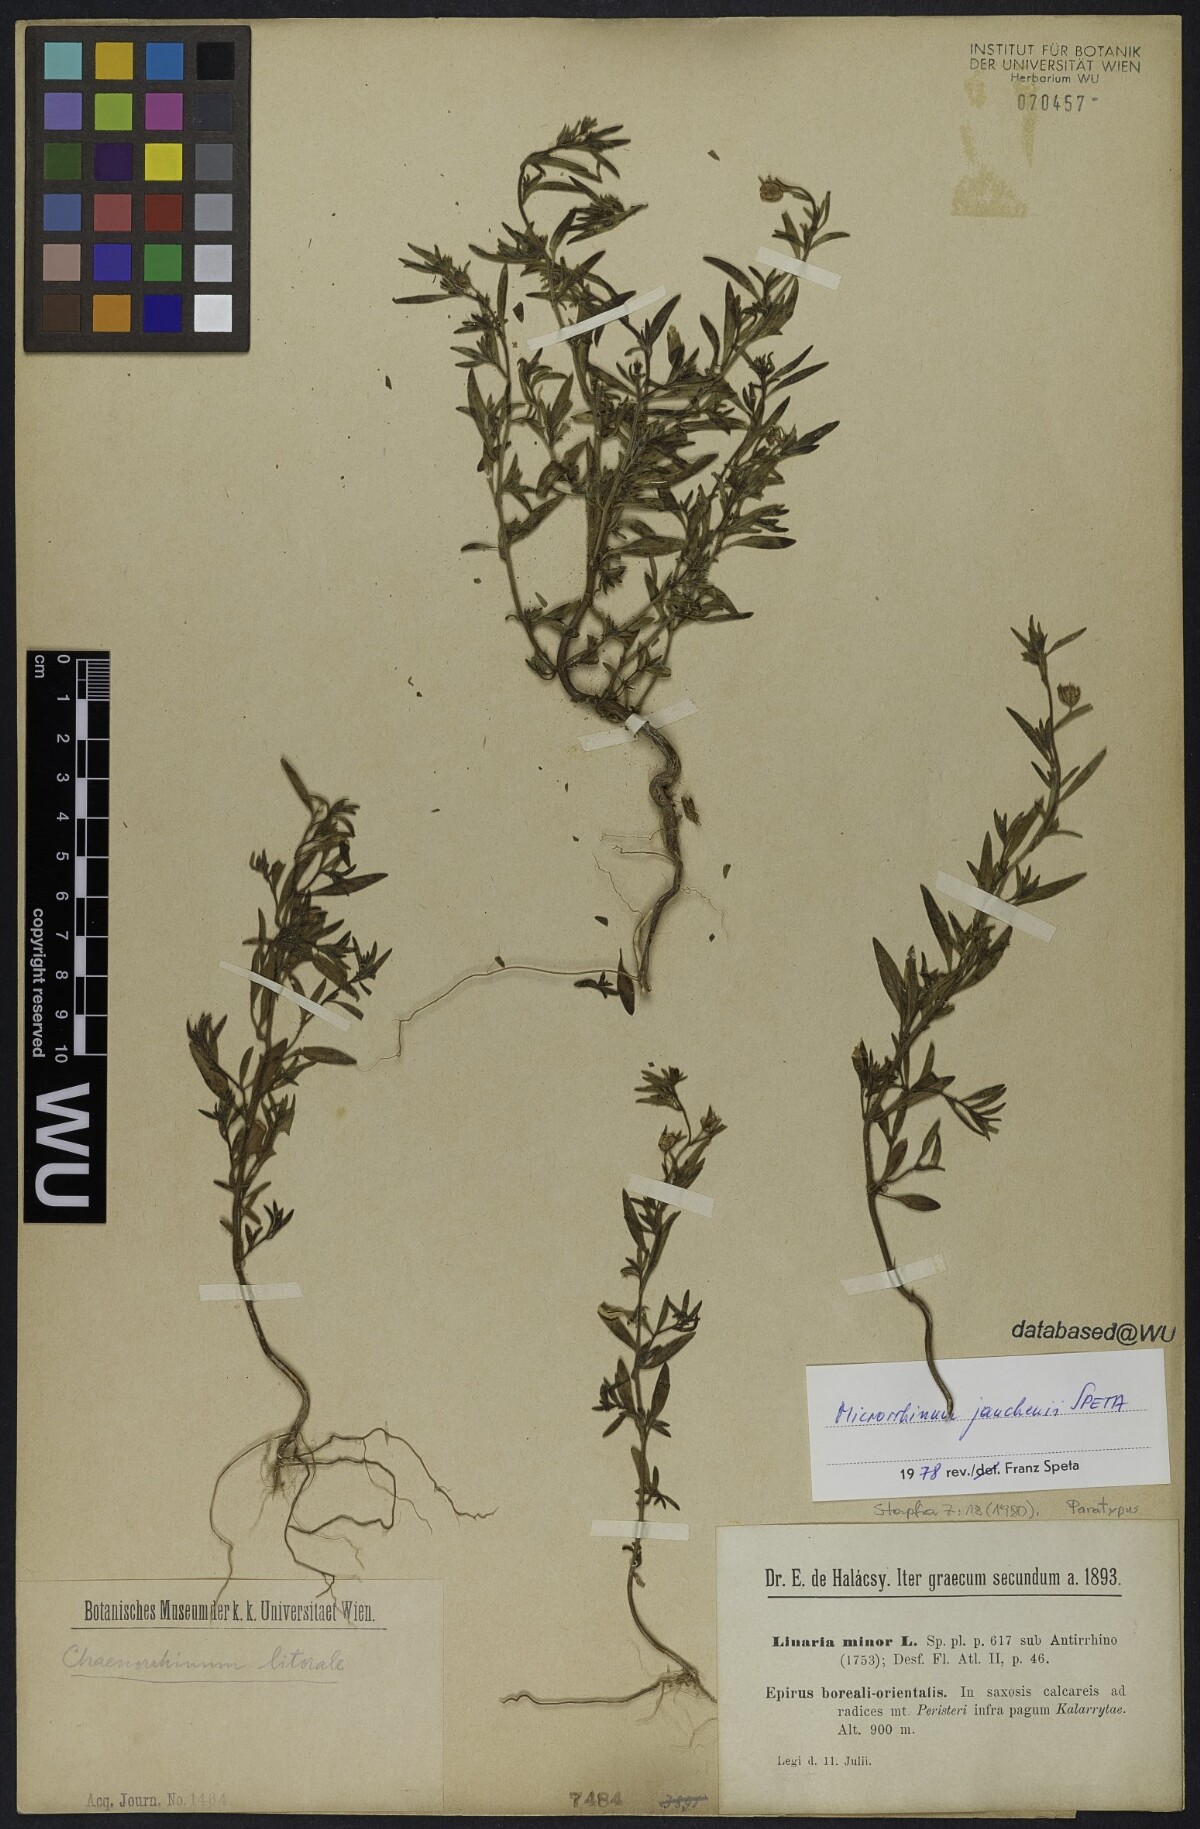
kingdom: Plantae
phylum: Tracheophyta
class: Magnoliopsida
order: Lamiales
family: Plantaginaceae
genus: Chaenorhinum
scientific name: Chaenorhinum litorale
